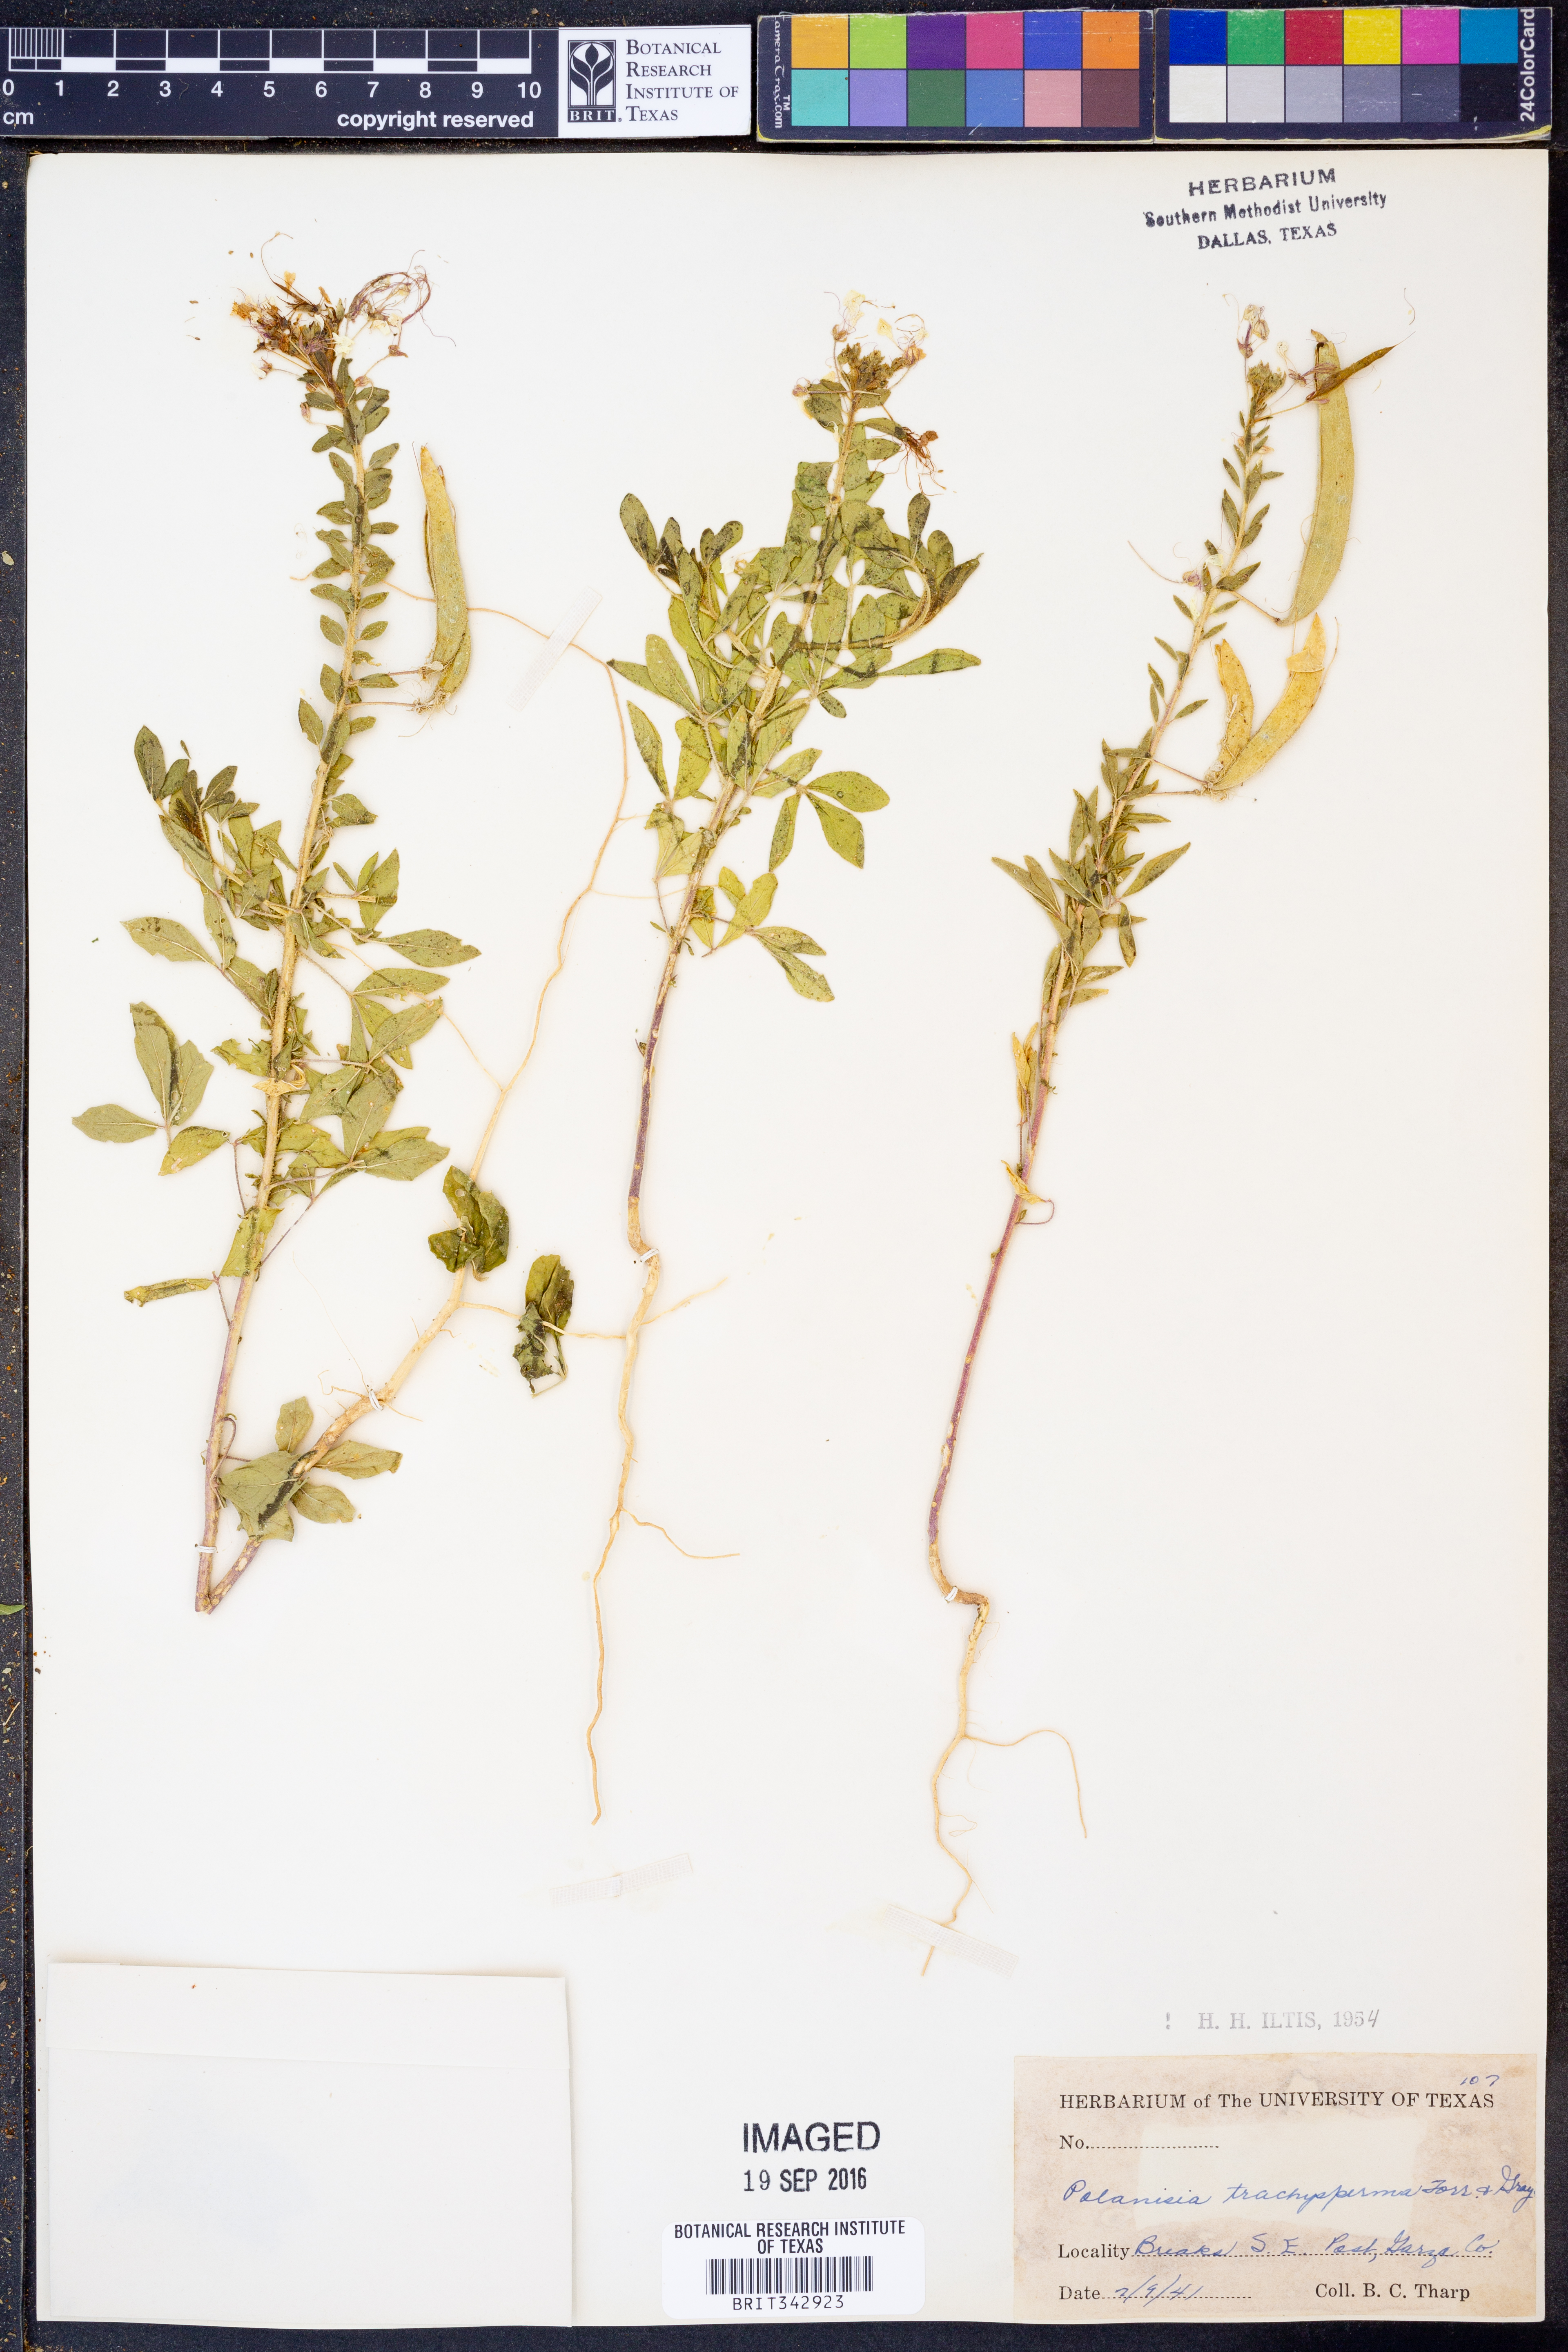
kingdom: Plantae
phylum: Tracheophyta
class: Magnoliopsida
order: Brassicales
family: Cleomaceae
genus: Polanisia
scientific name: Polanisia trachysperma
